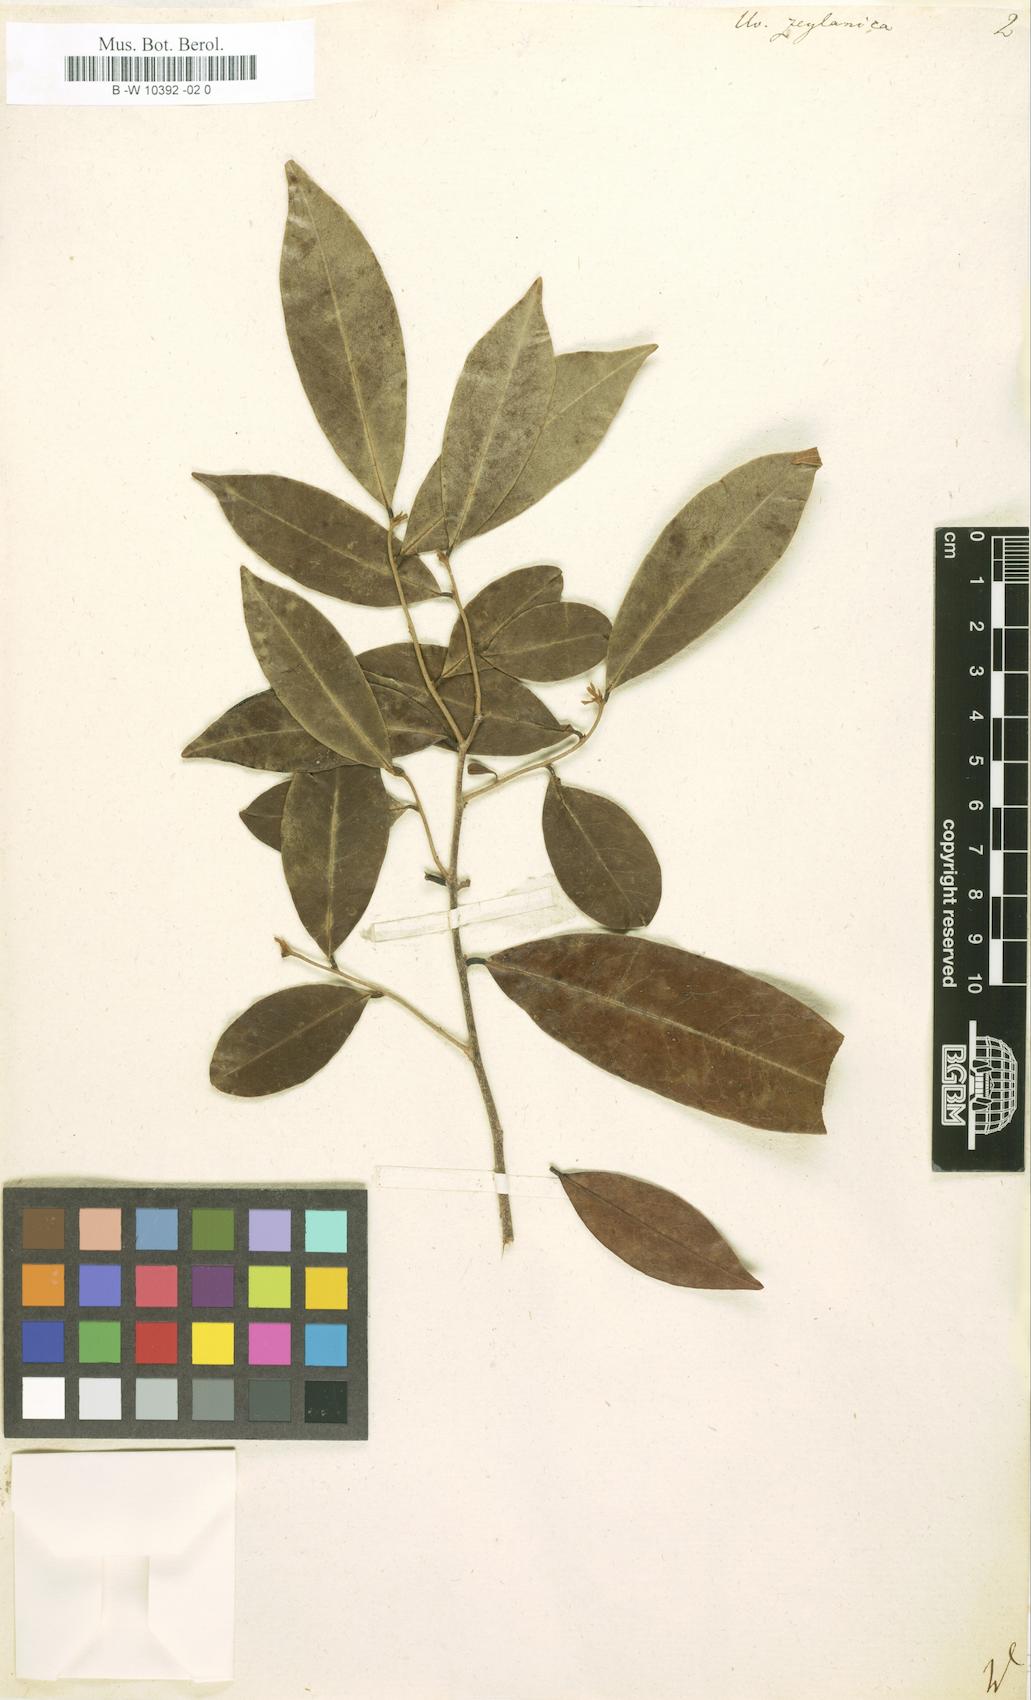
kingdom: Plantae
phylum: Tracheophyta
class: Magnoliopsida
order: Magnoliales
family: Annonaceae
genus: Uvaria
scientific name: Uvaria zeylanica
